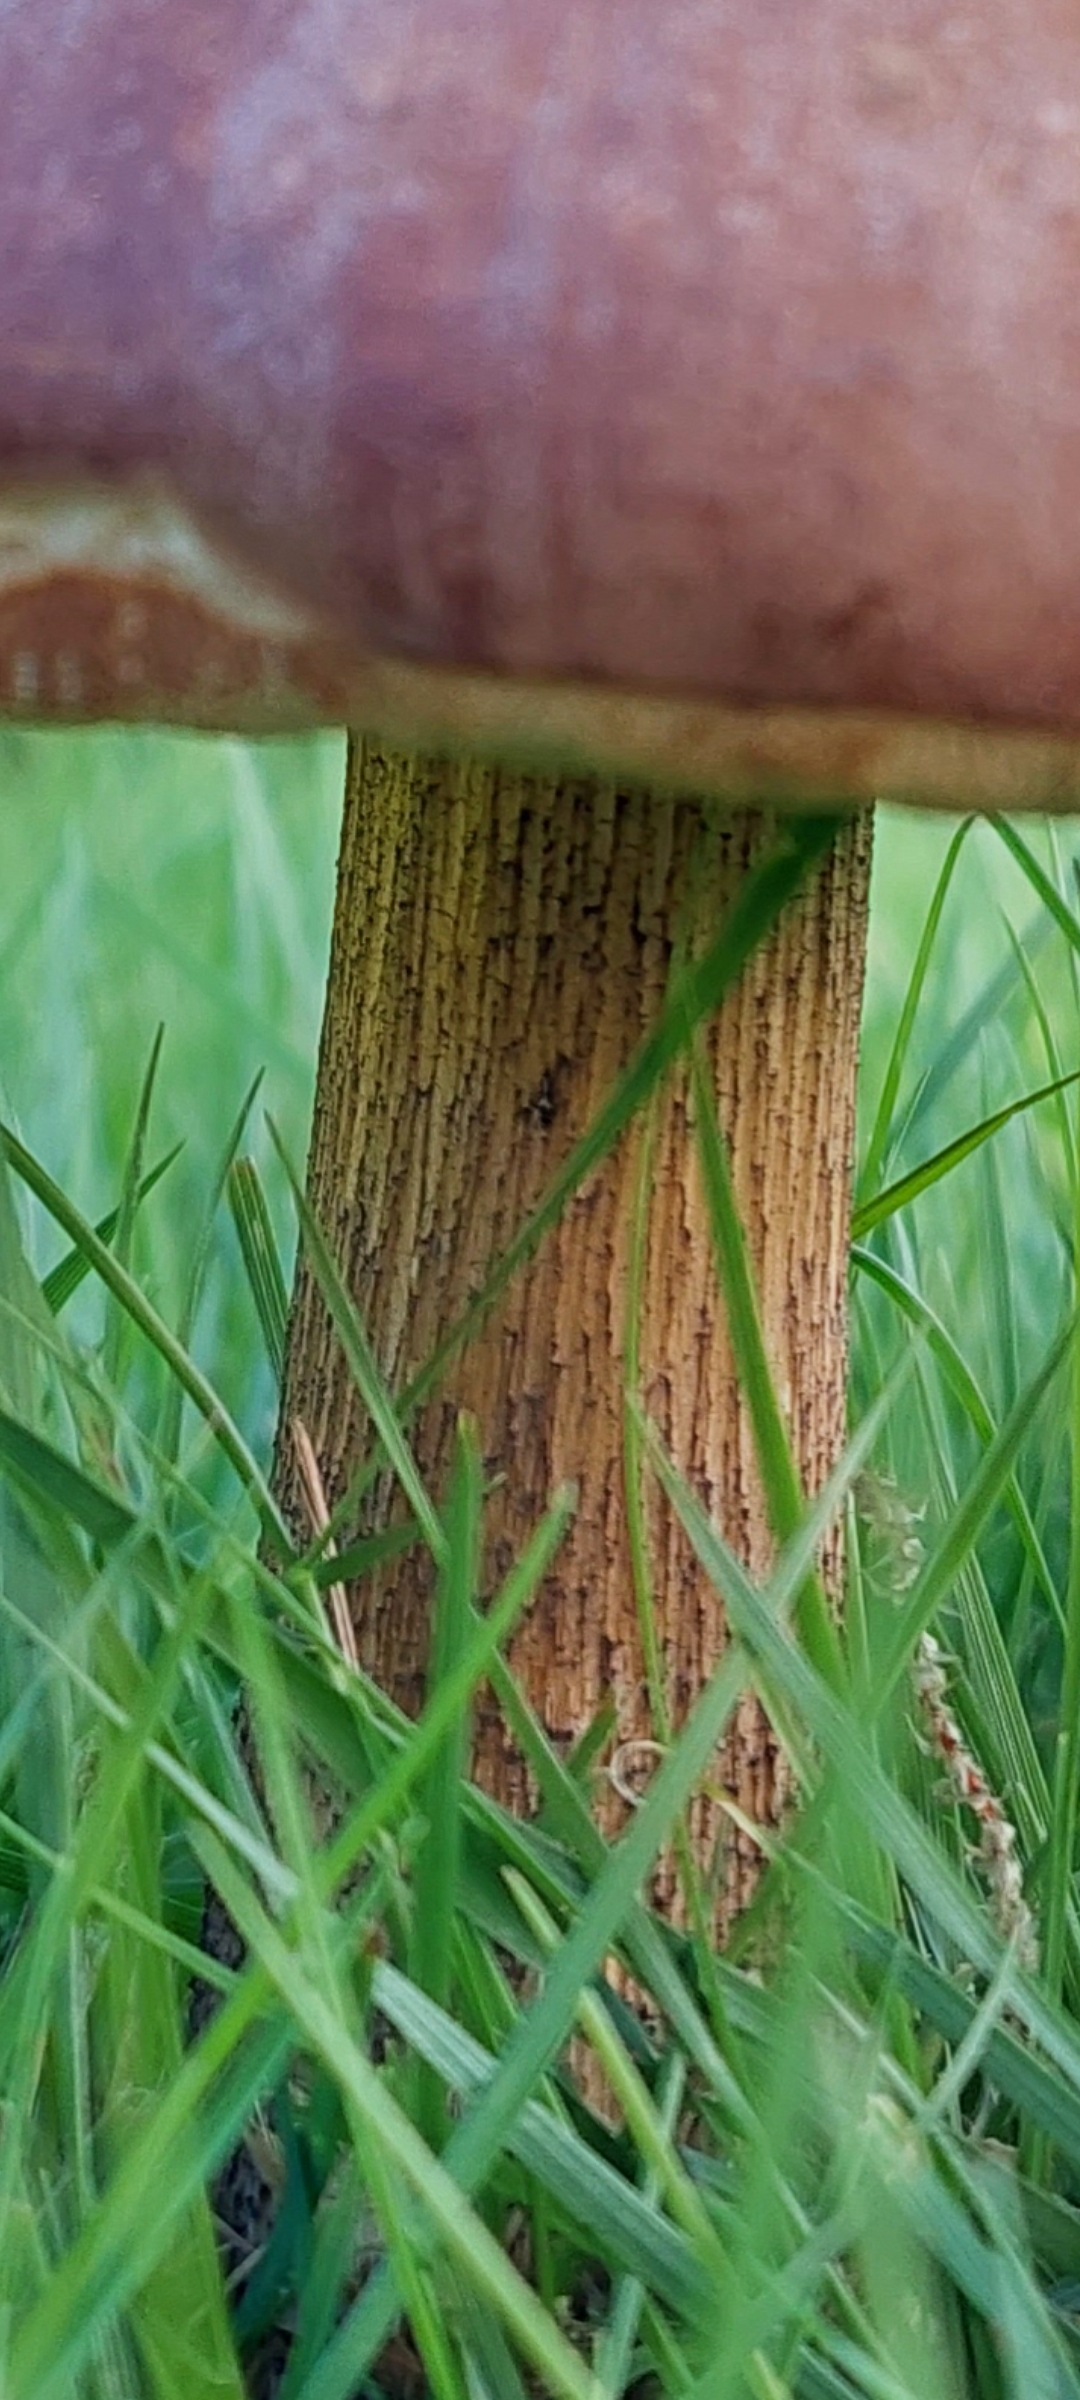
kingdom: Fungi
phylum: Basidiomycota
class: Agaricomycetes
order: Boletales
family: Boletaceae
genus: Leccinum
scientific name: Leccinum scabrum
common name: brun skælrørhat
